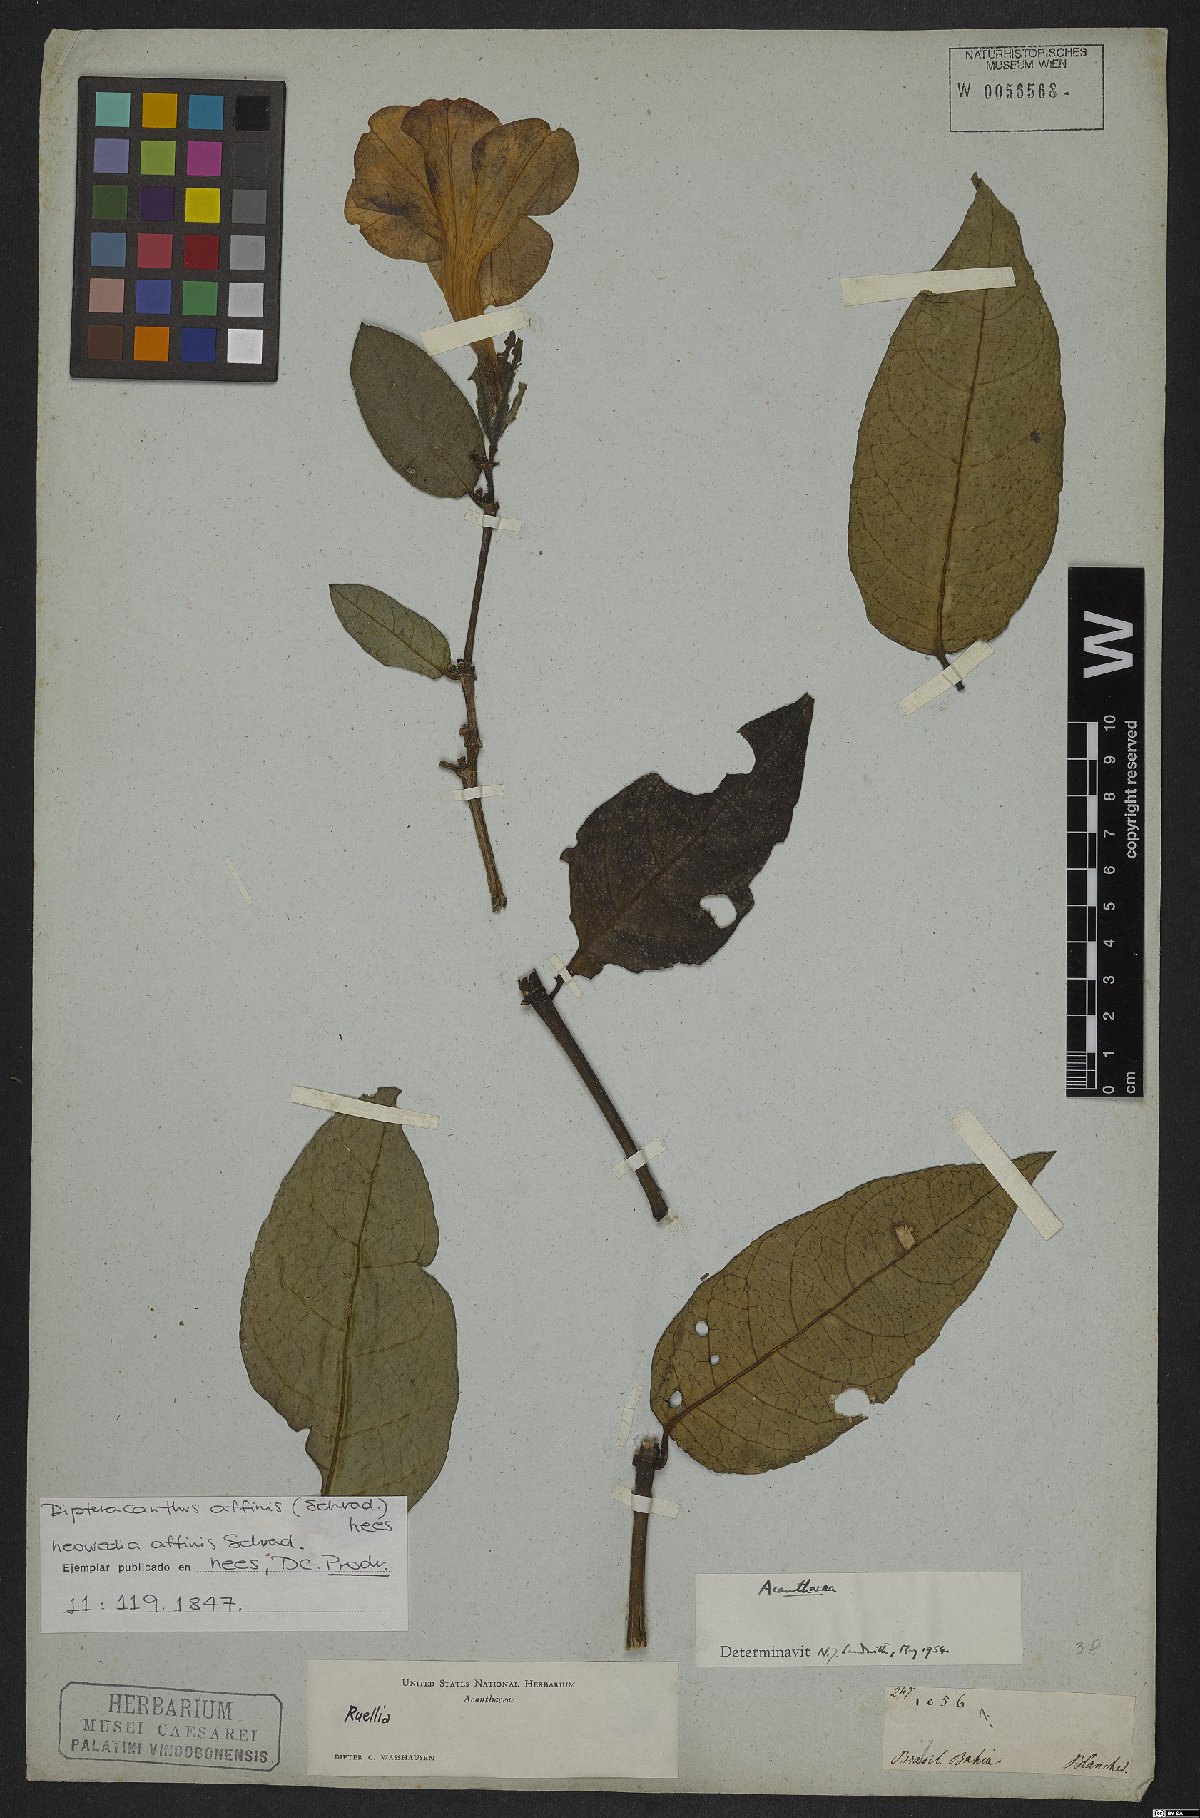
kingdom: Plantae
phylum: Tracheophyta
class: Magnoliopsida
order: Lamiales
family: Acanthaceae
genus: Ruellia
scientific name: Ruellia
